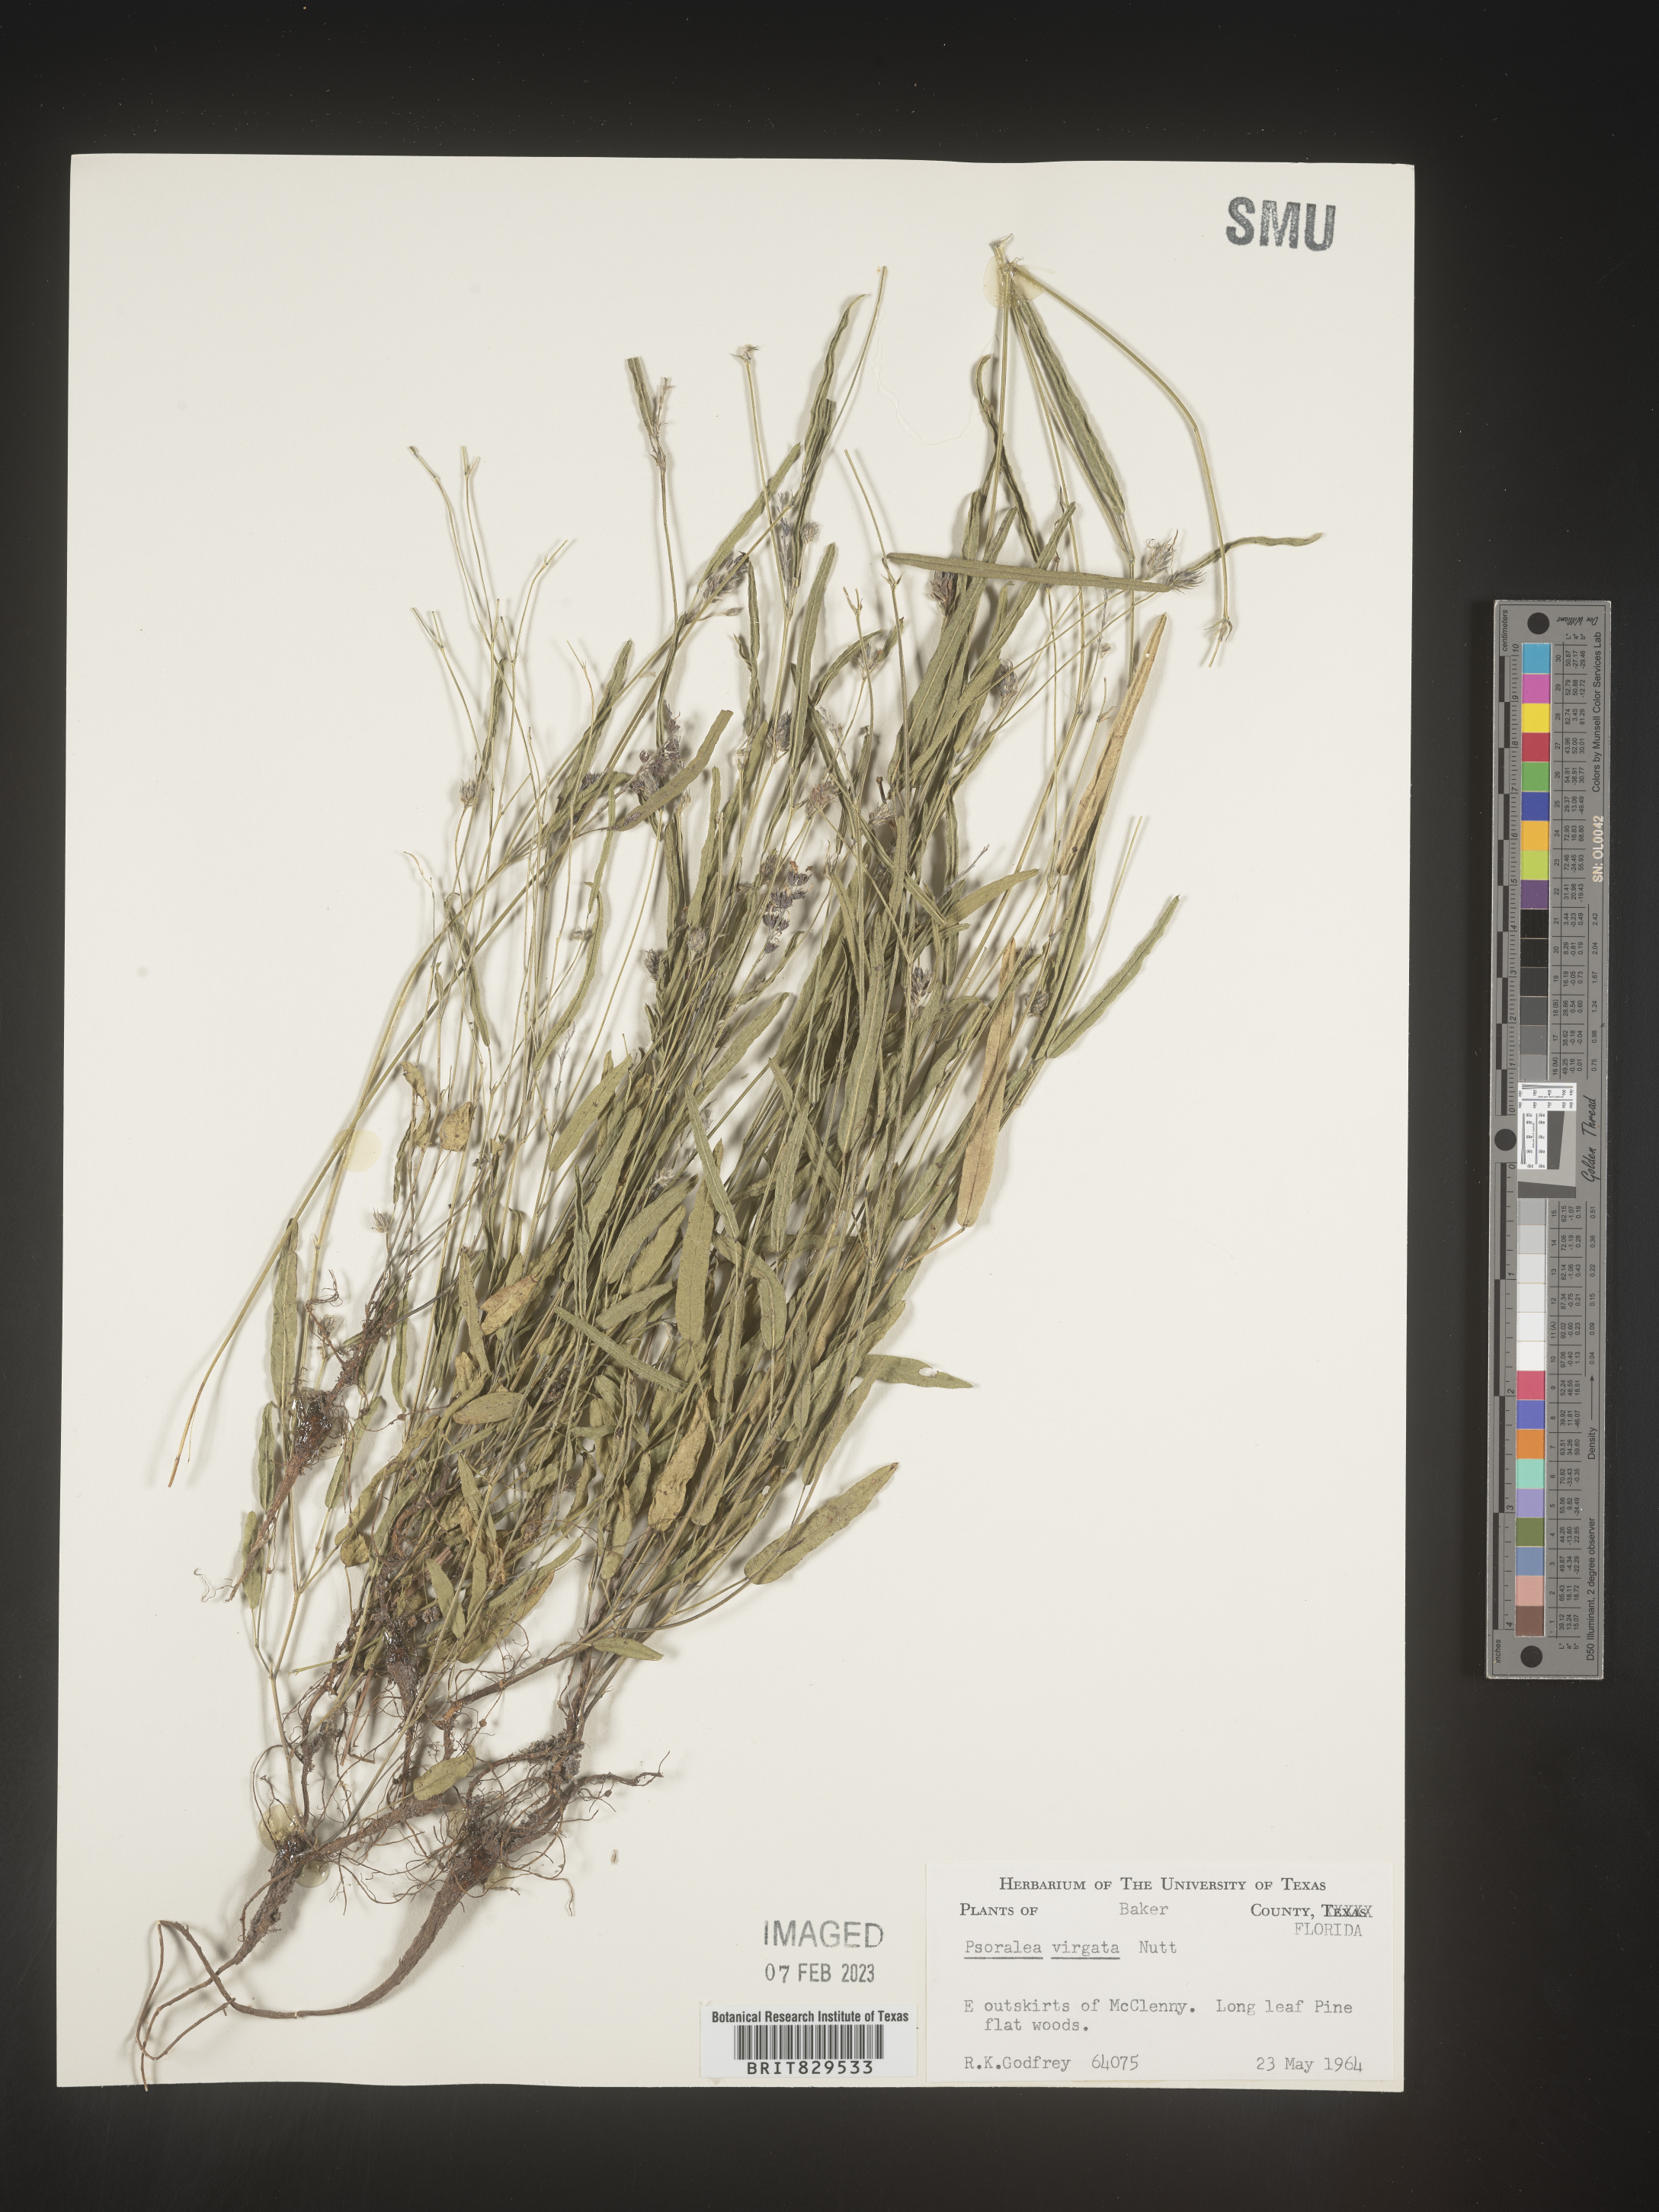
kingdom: Plantae
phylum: Tracheophyta
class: Magnoliopsida
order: Fabales
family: Fabaceae
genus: Psoralea
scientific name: Psoralea
